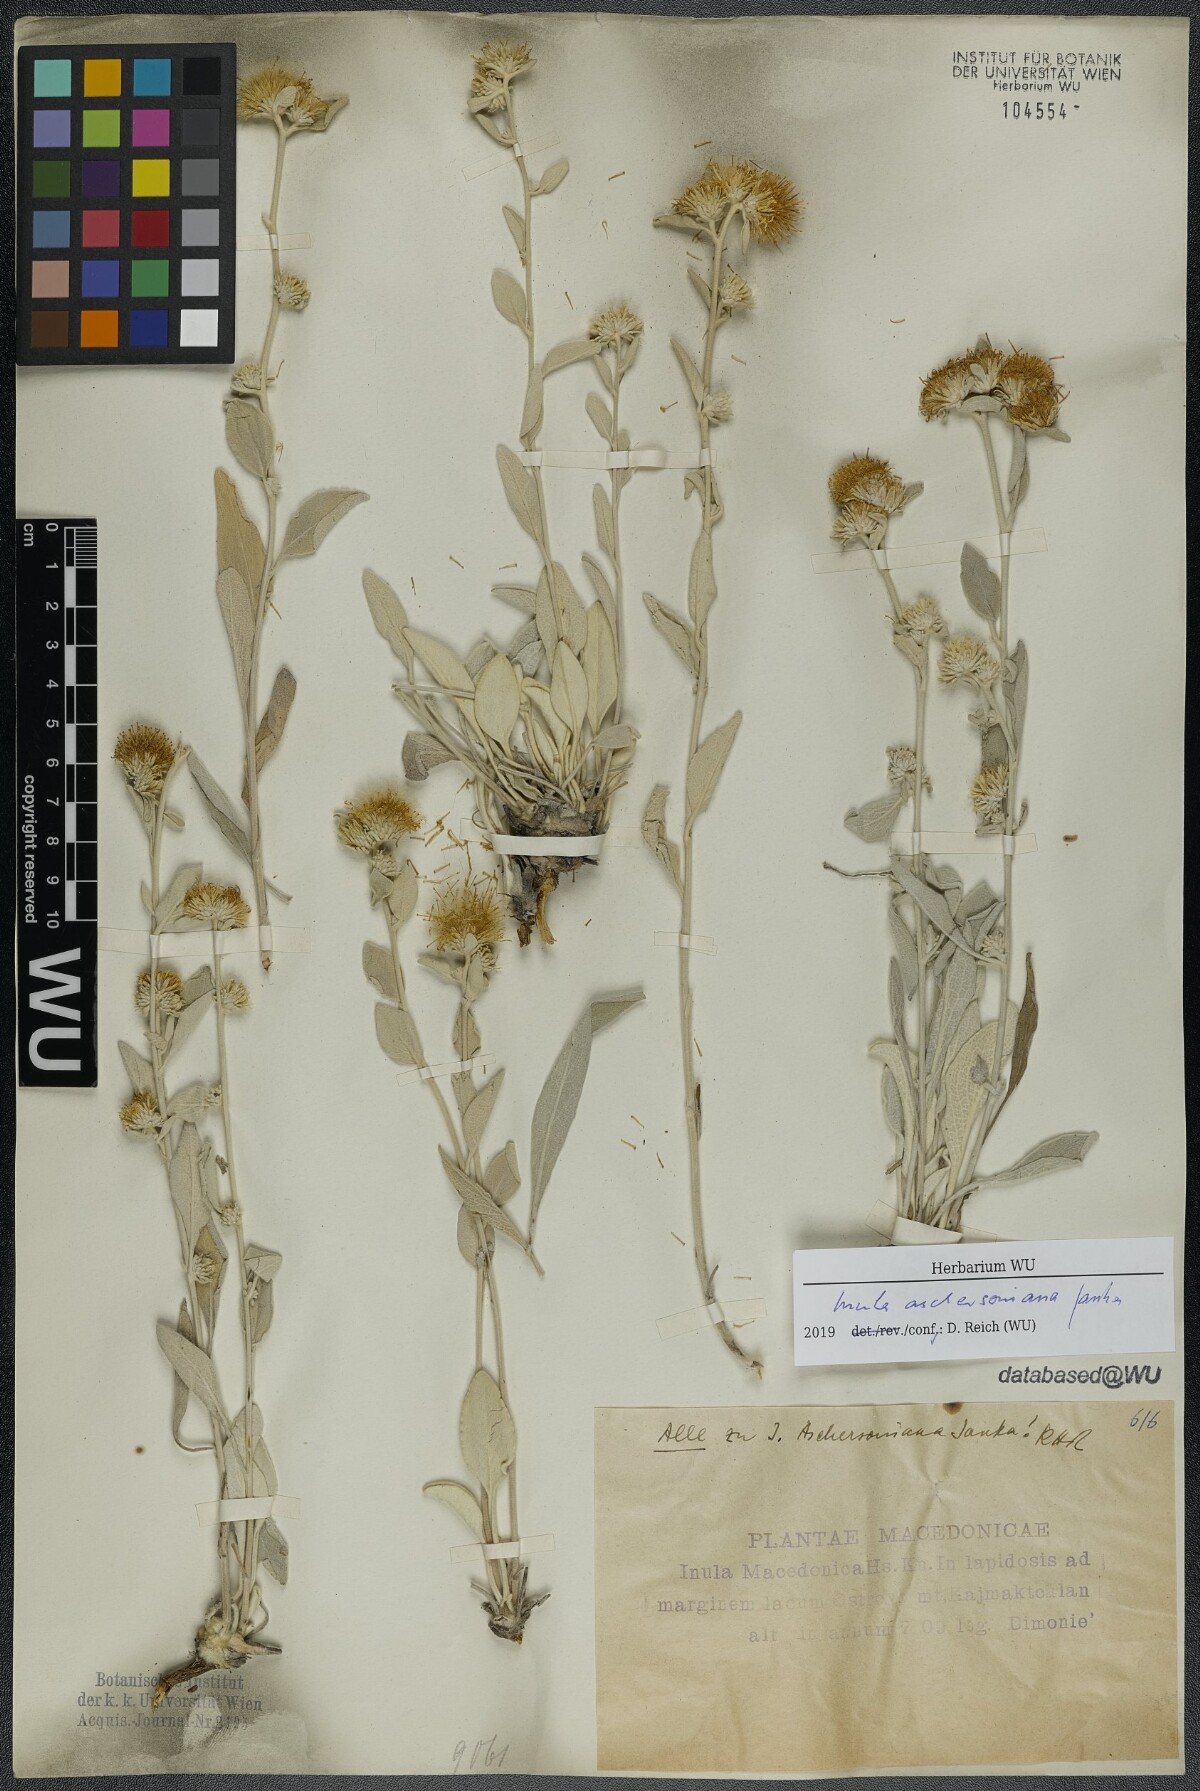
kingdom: Plantae
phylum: Tracheophyta
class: Magnoliopsida
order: Asterales
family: Asteraceae
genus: Pentanema
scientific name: Pentanema aschersonianum
